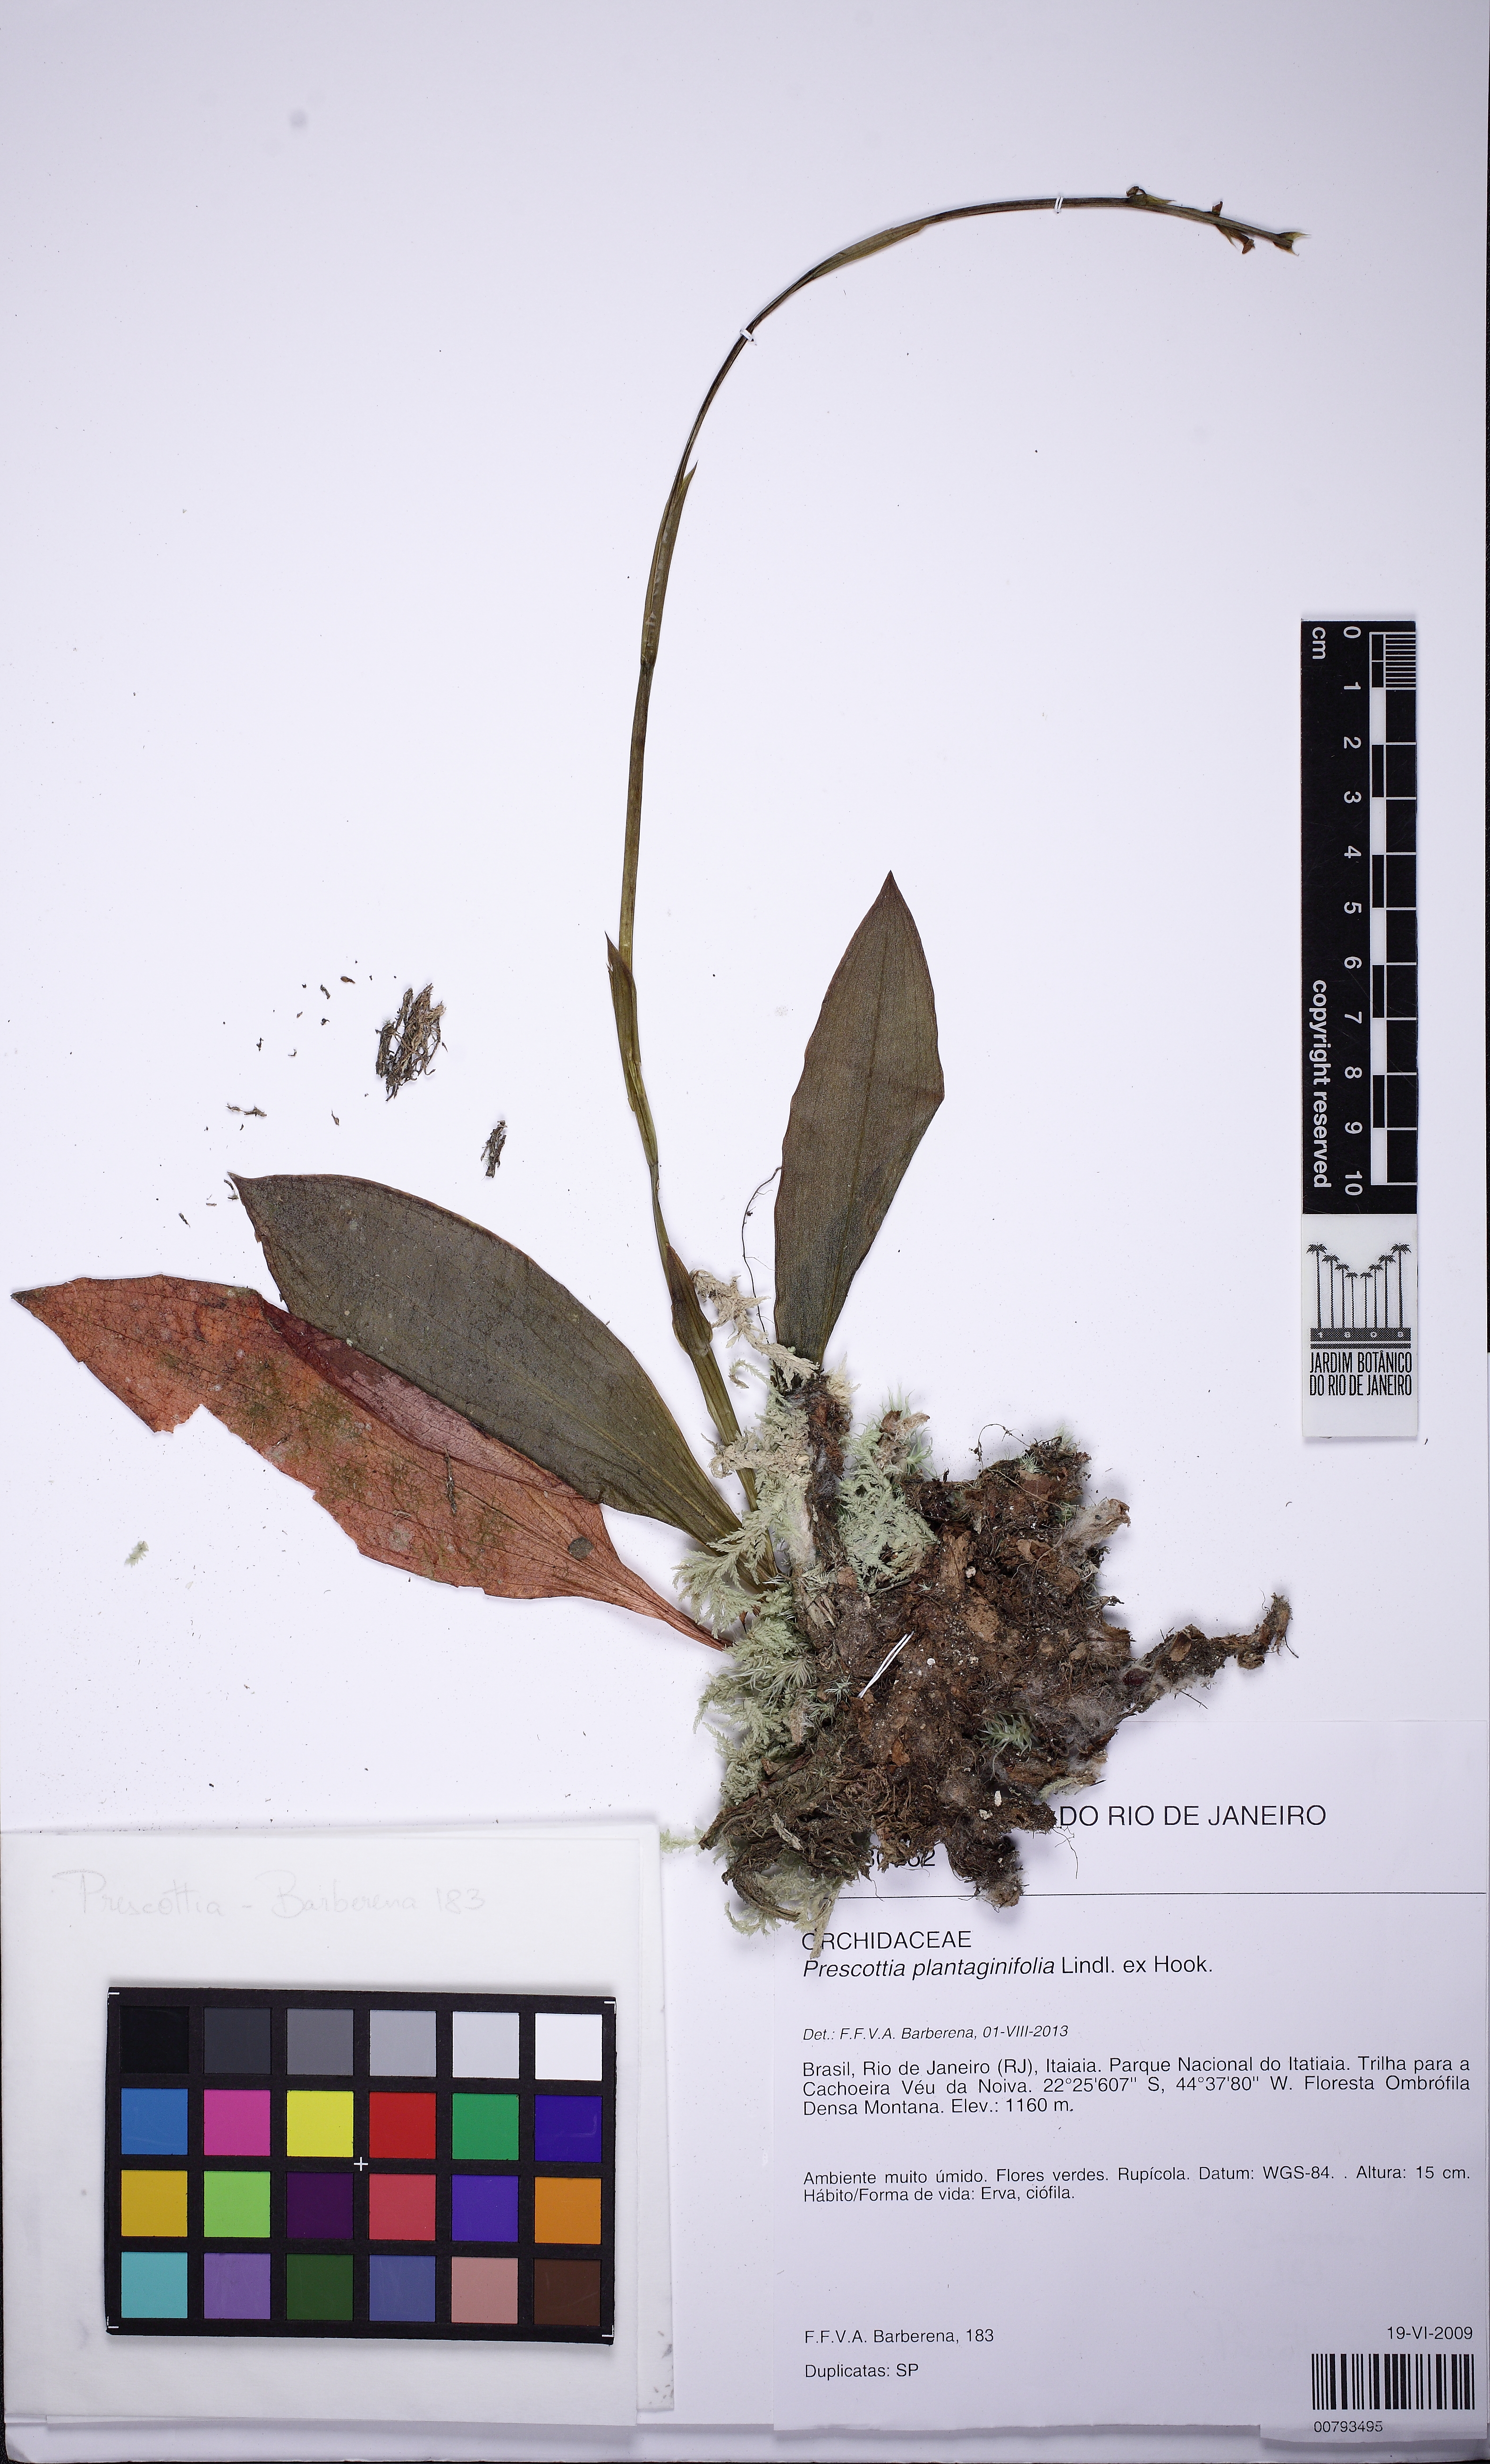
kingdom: Plantae
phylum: Tracheophyta
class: Liliopsida
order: Asparagales
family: Orchidaceae
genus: Prescottia
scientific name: Prescottia plantaginifolia
